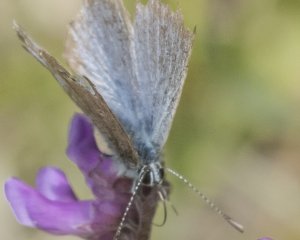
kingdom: Animalia
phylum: Arthropoda
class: Insecta
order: Lepidoptera
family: Lycaenidae
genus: Glaucopsyche
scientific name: Glaucopsyche lygdamus
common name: Silvery Blue
